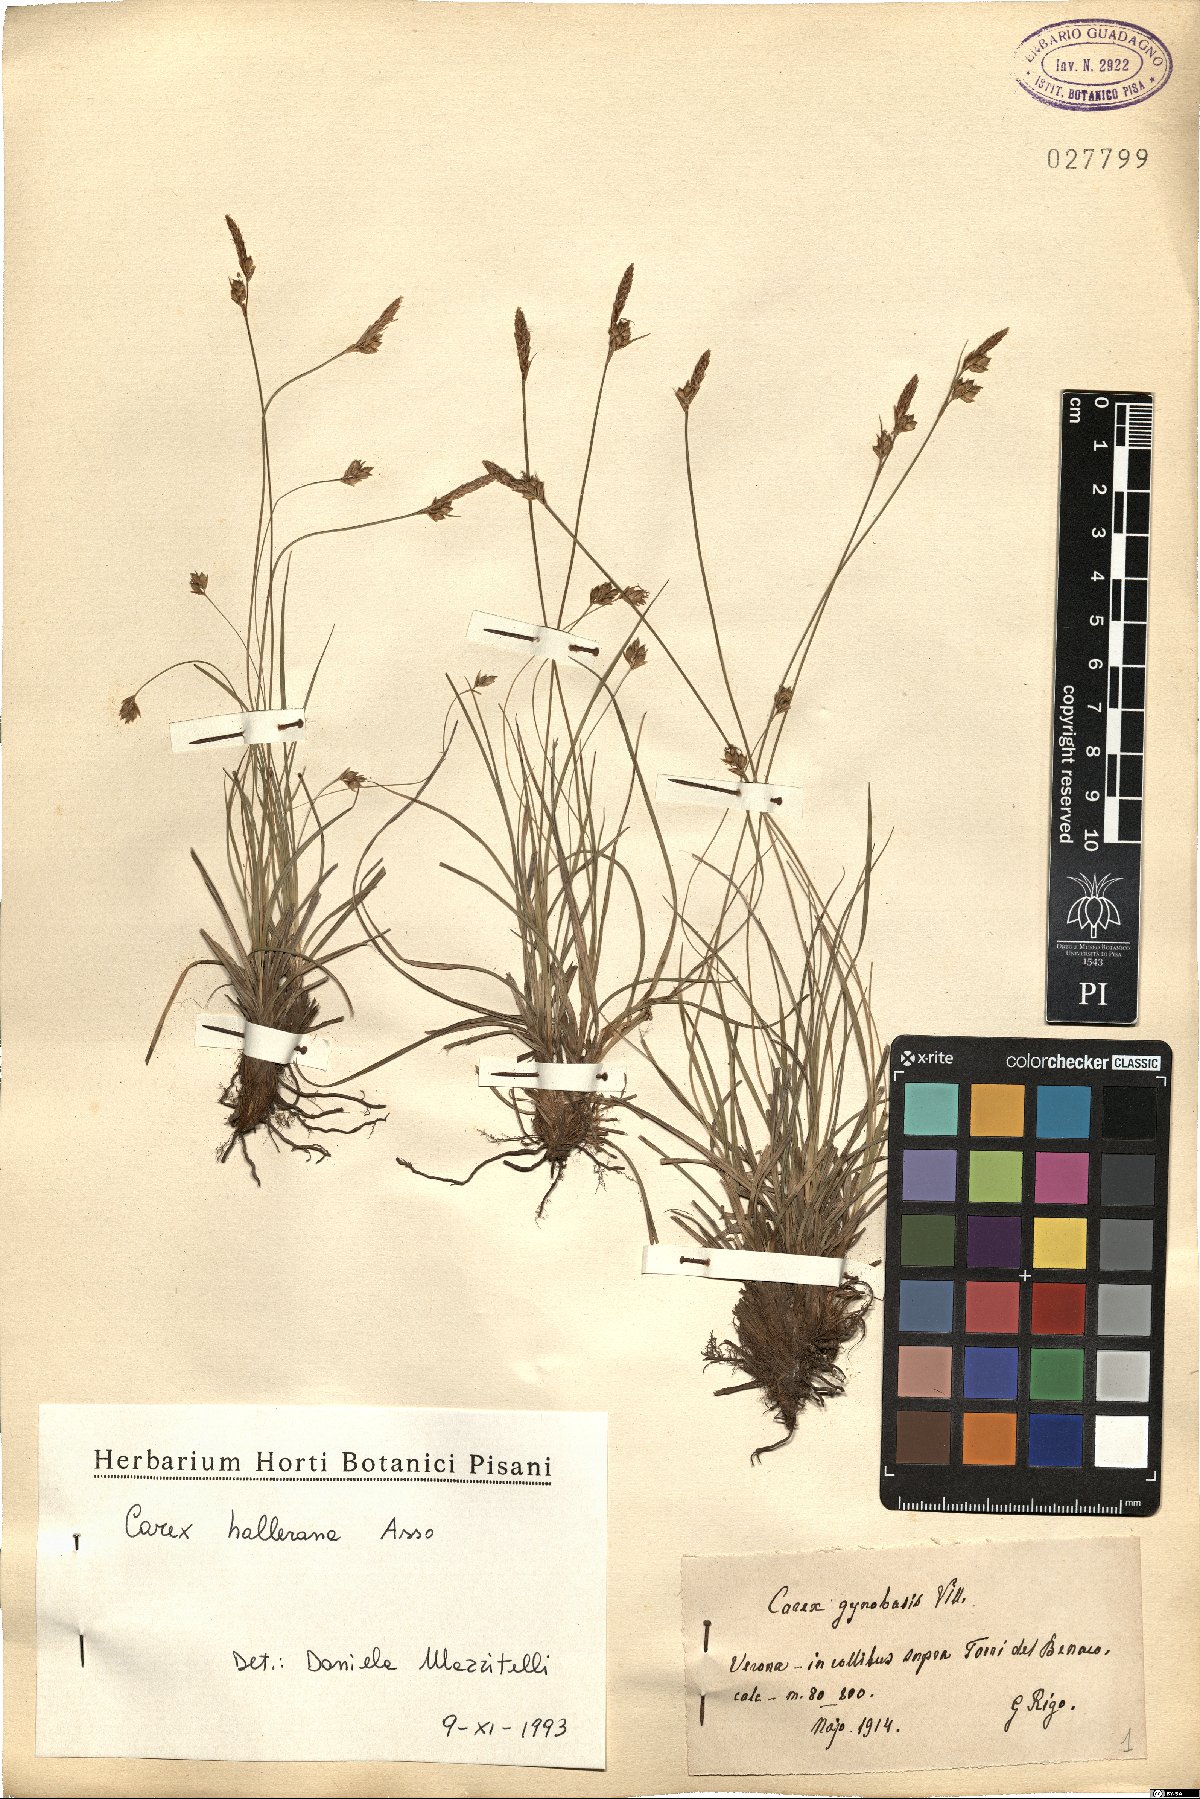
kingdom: Plantae
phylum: Tracheophyta
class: Liliopsida
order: Poales
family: Cyperaceae
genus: Carex
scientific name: Carex halleriana
